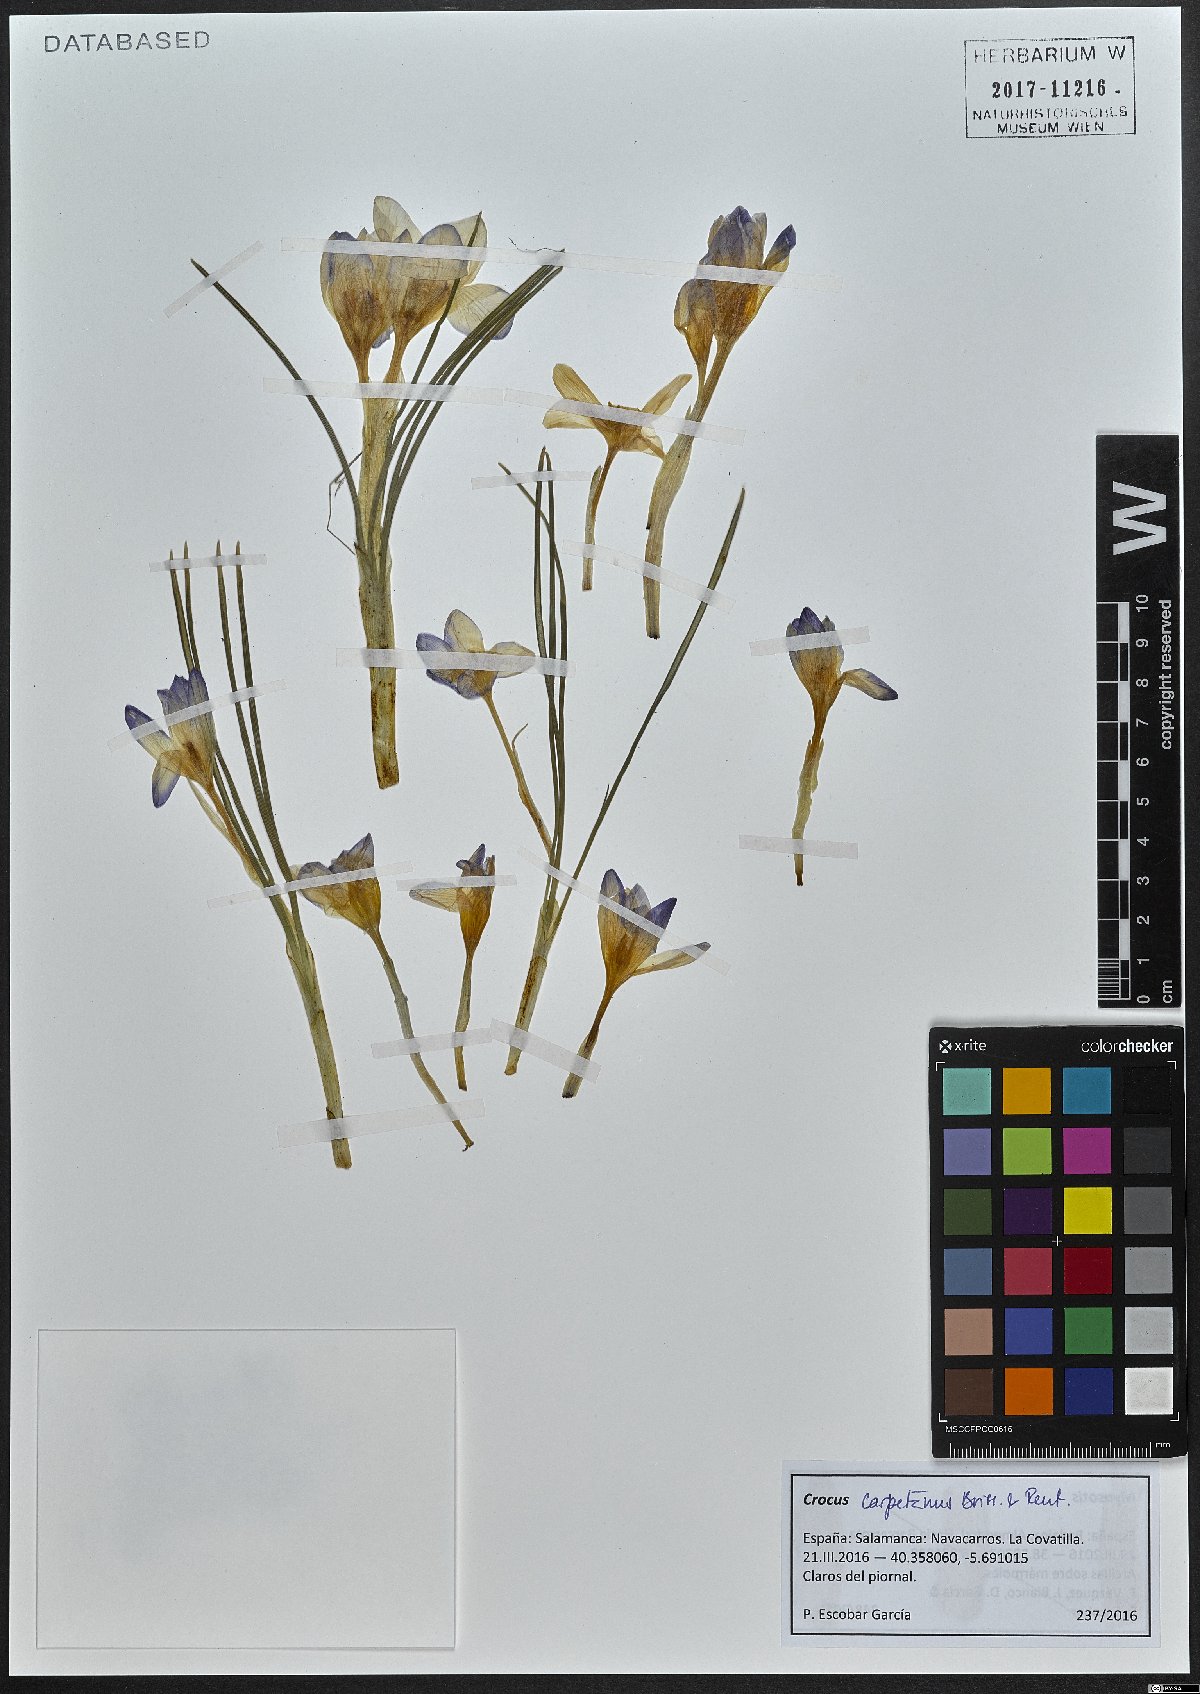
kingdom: Plantae
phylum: Tracheophyta
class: Liliopsida
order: Asparagales
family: Iridaceae
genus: Crocus
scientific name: Crocus carpetanus
